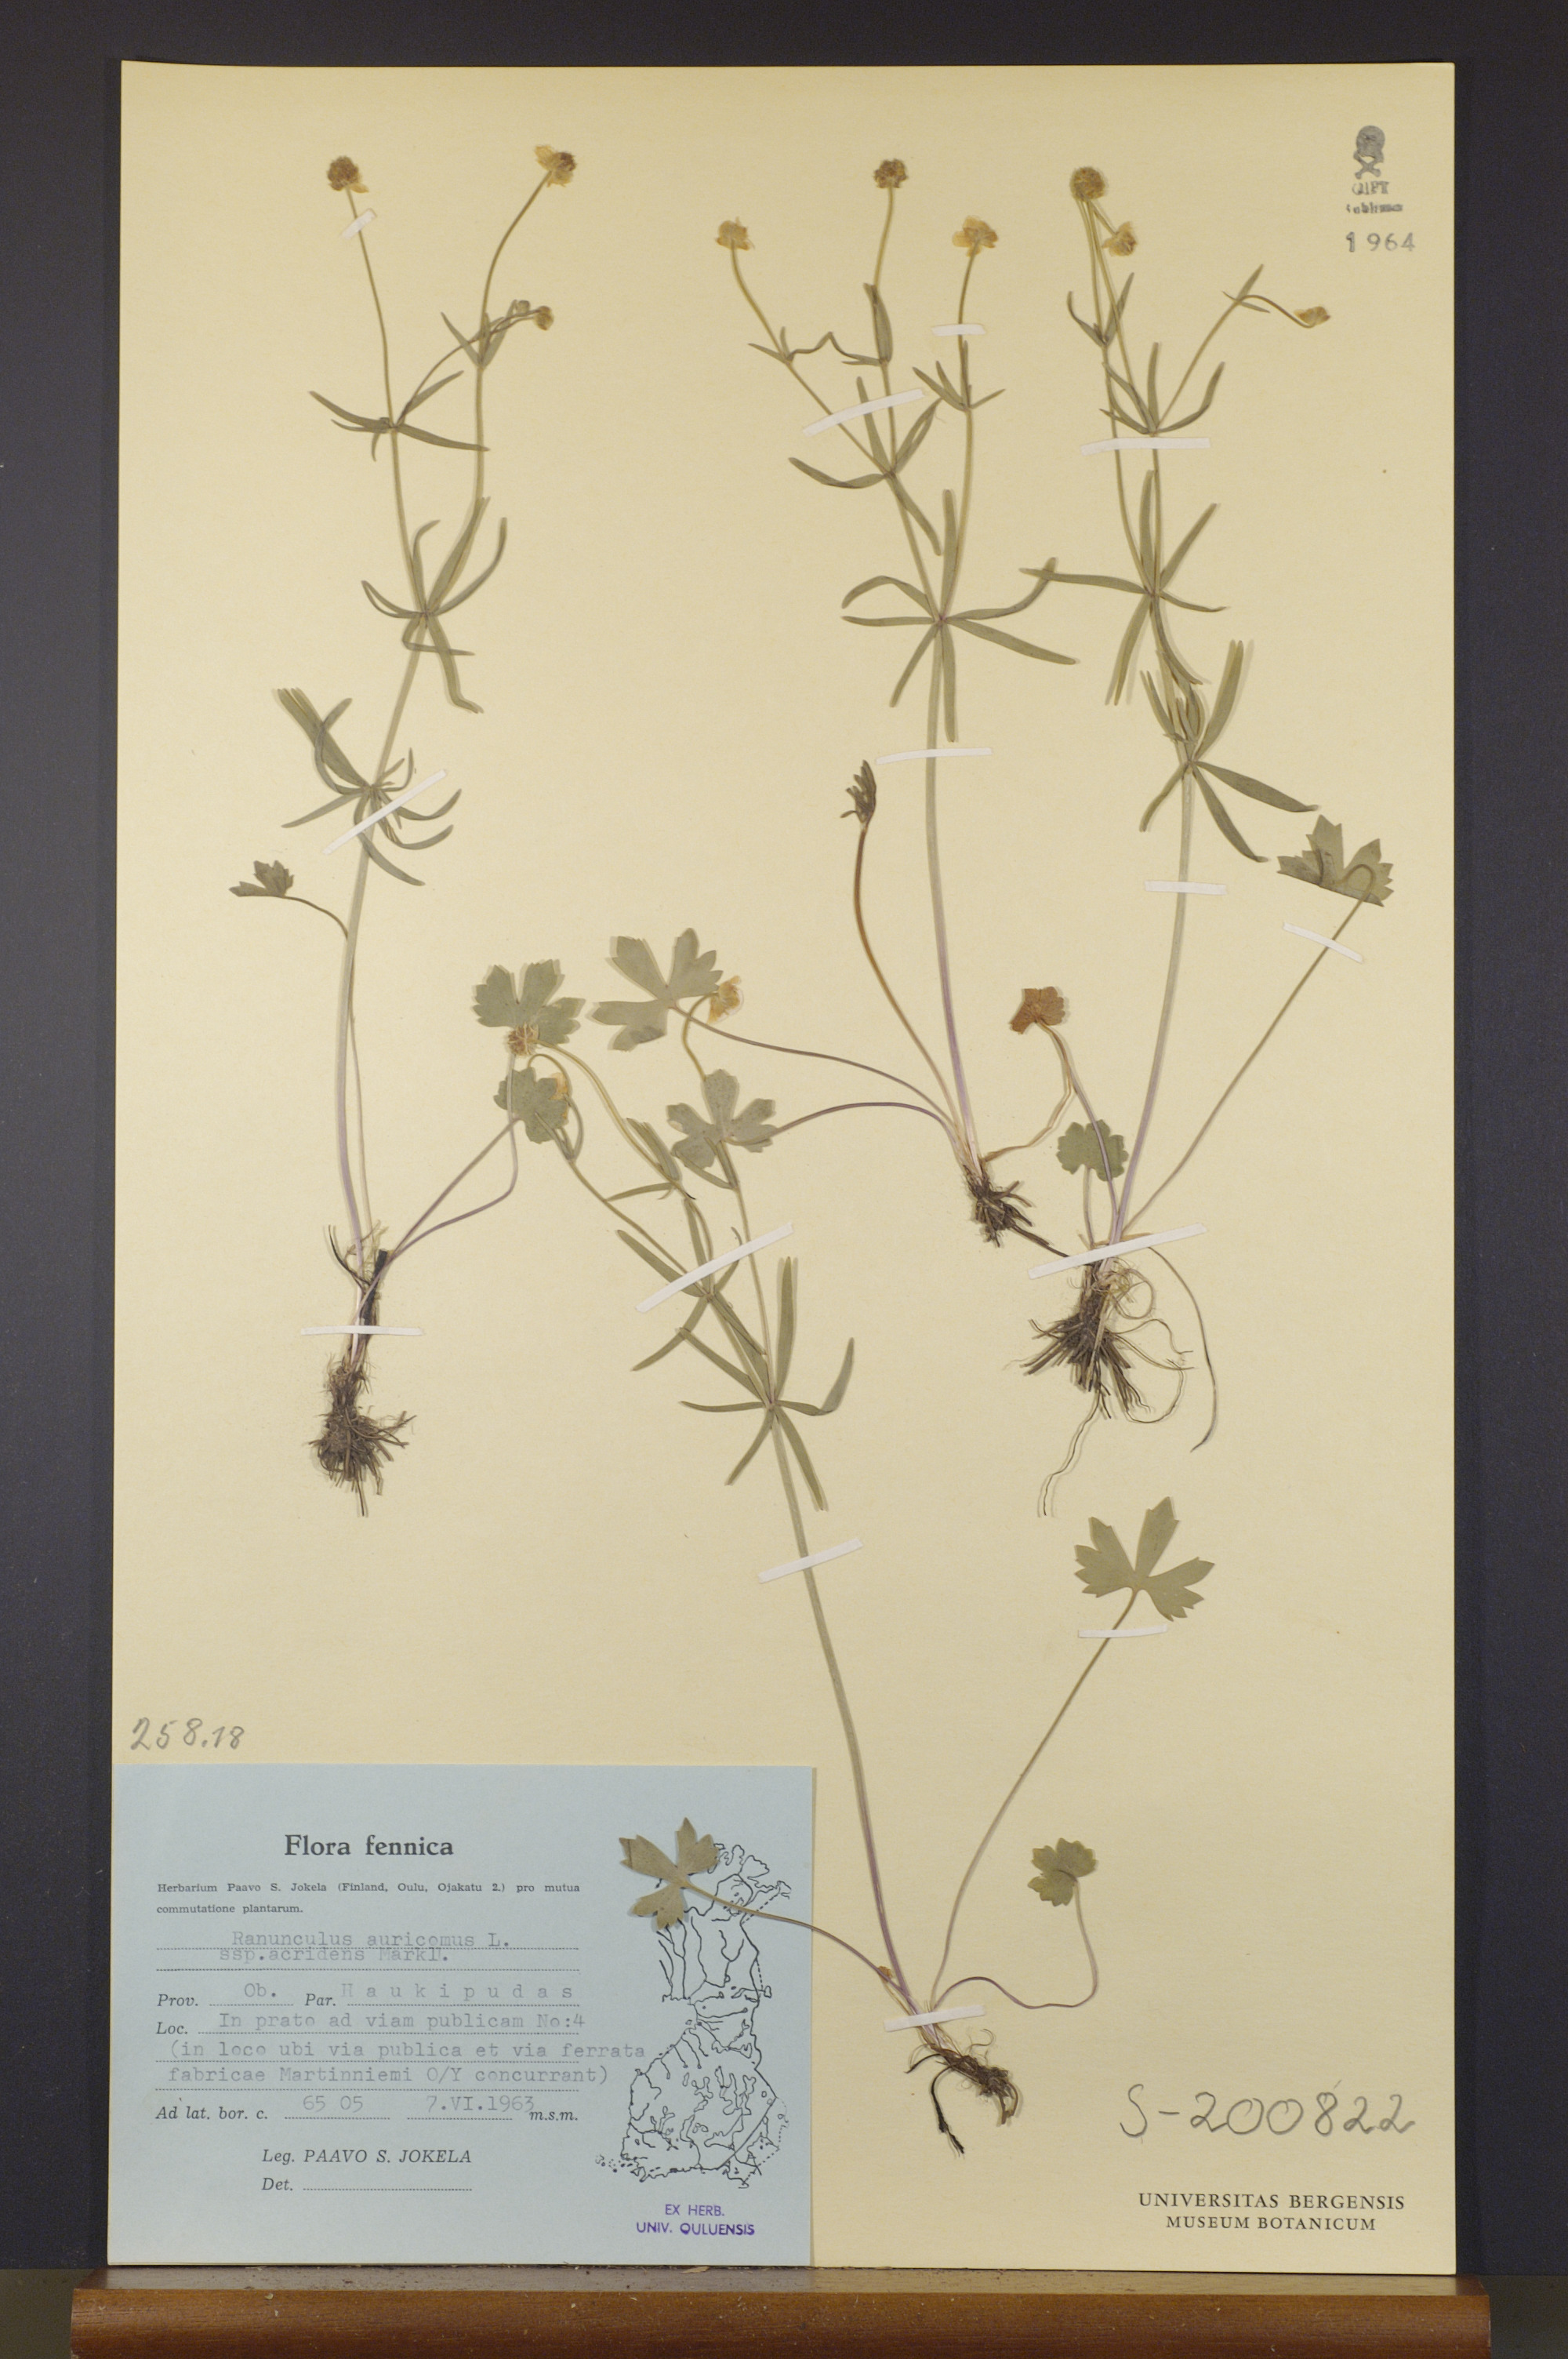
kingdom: Plantae
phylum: Tracheophyta
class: Magnoliopsida
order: Ranunculales
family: Ranunculaceae
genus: Ranunculus
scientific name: Ranunculus auricomus
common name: Goldilocks buttercup
